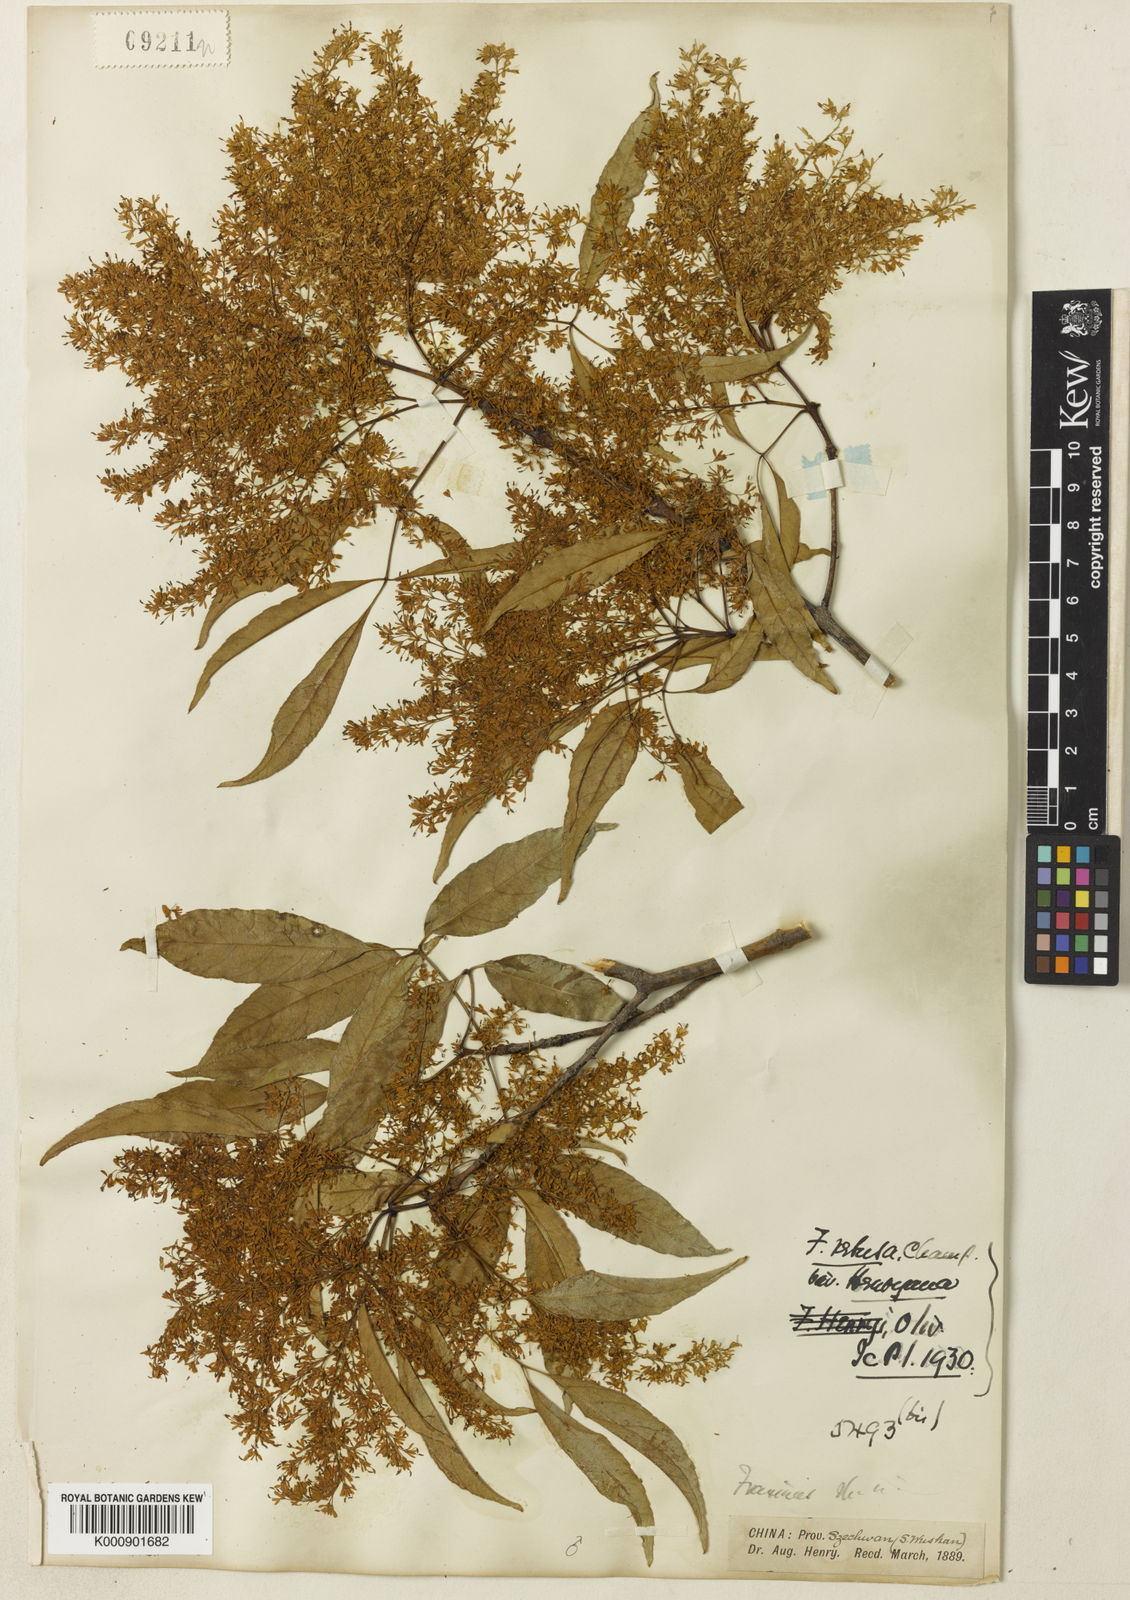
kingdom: Plantae
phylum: Tracheophyta
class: Magnoliopsida
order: Lamiales
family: Oleaceae
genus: Fraxinus
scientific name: Fraxinus floribunda
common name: East indian ash
